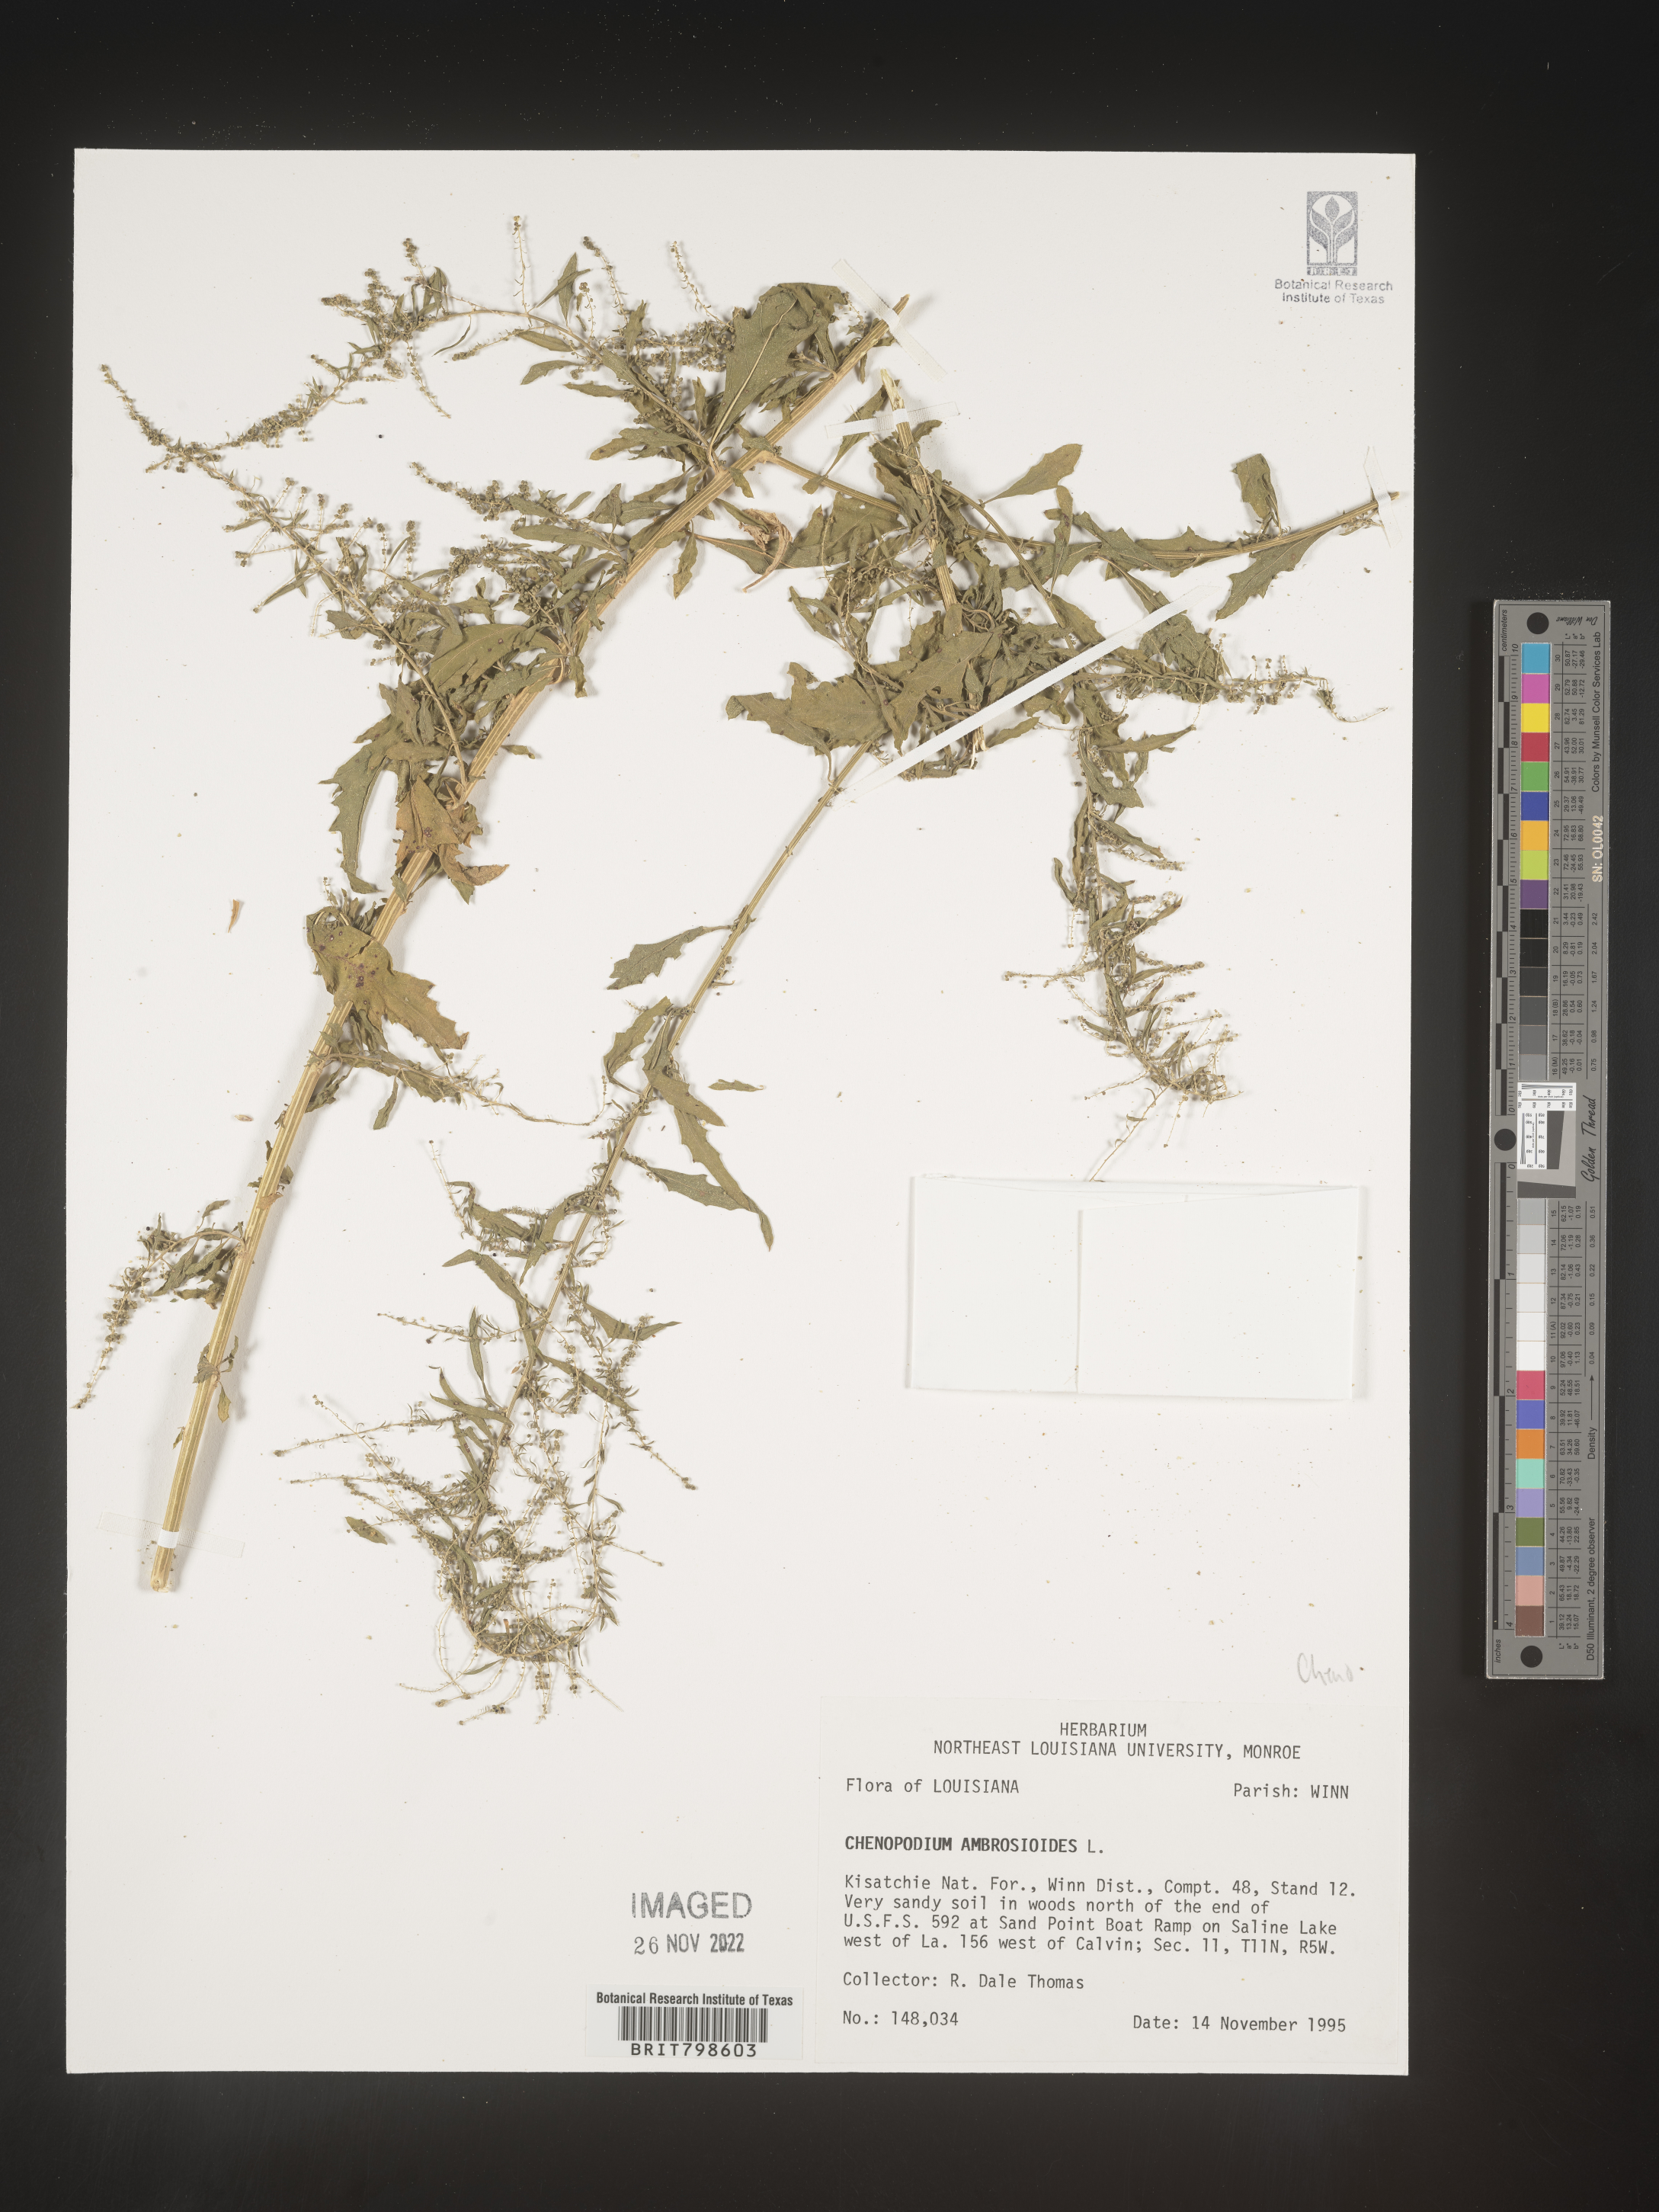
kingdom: Plantae
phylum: Tracheophyta
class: Magnoliopsida
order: Caryophyllales
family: Amaranthaceae
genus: Dysphania
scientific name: Dysphania ambrosioides
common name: Wormseed
